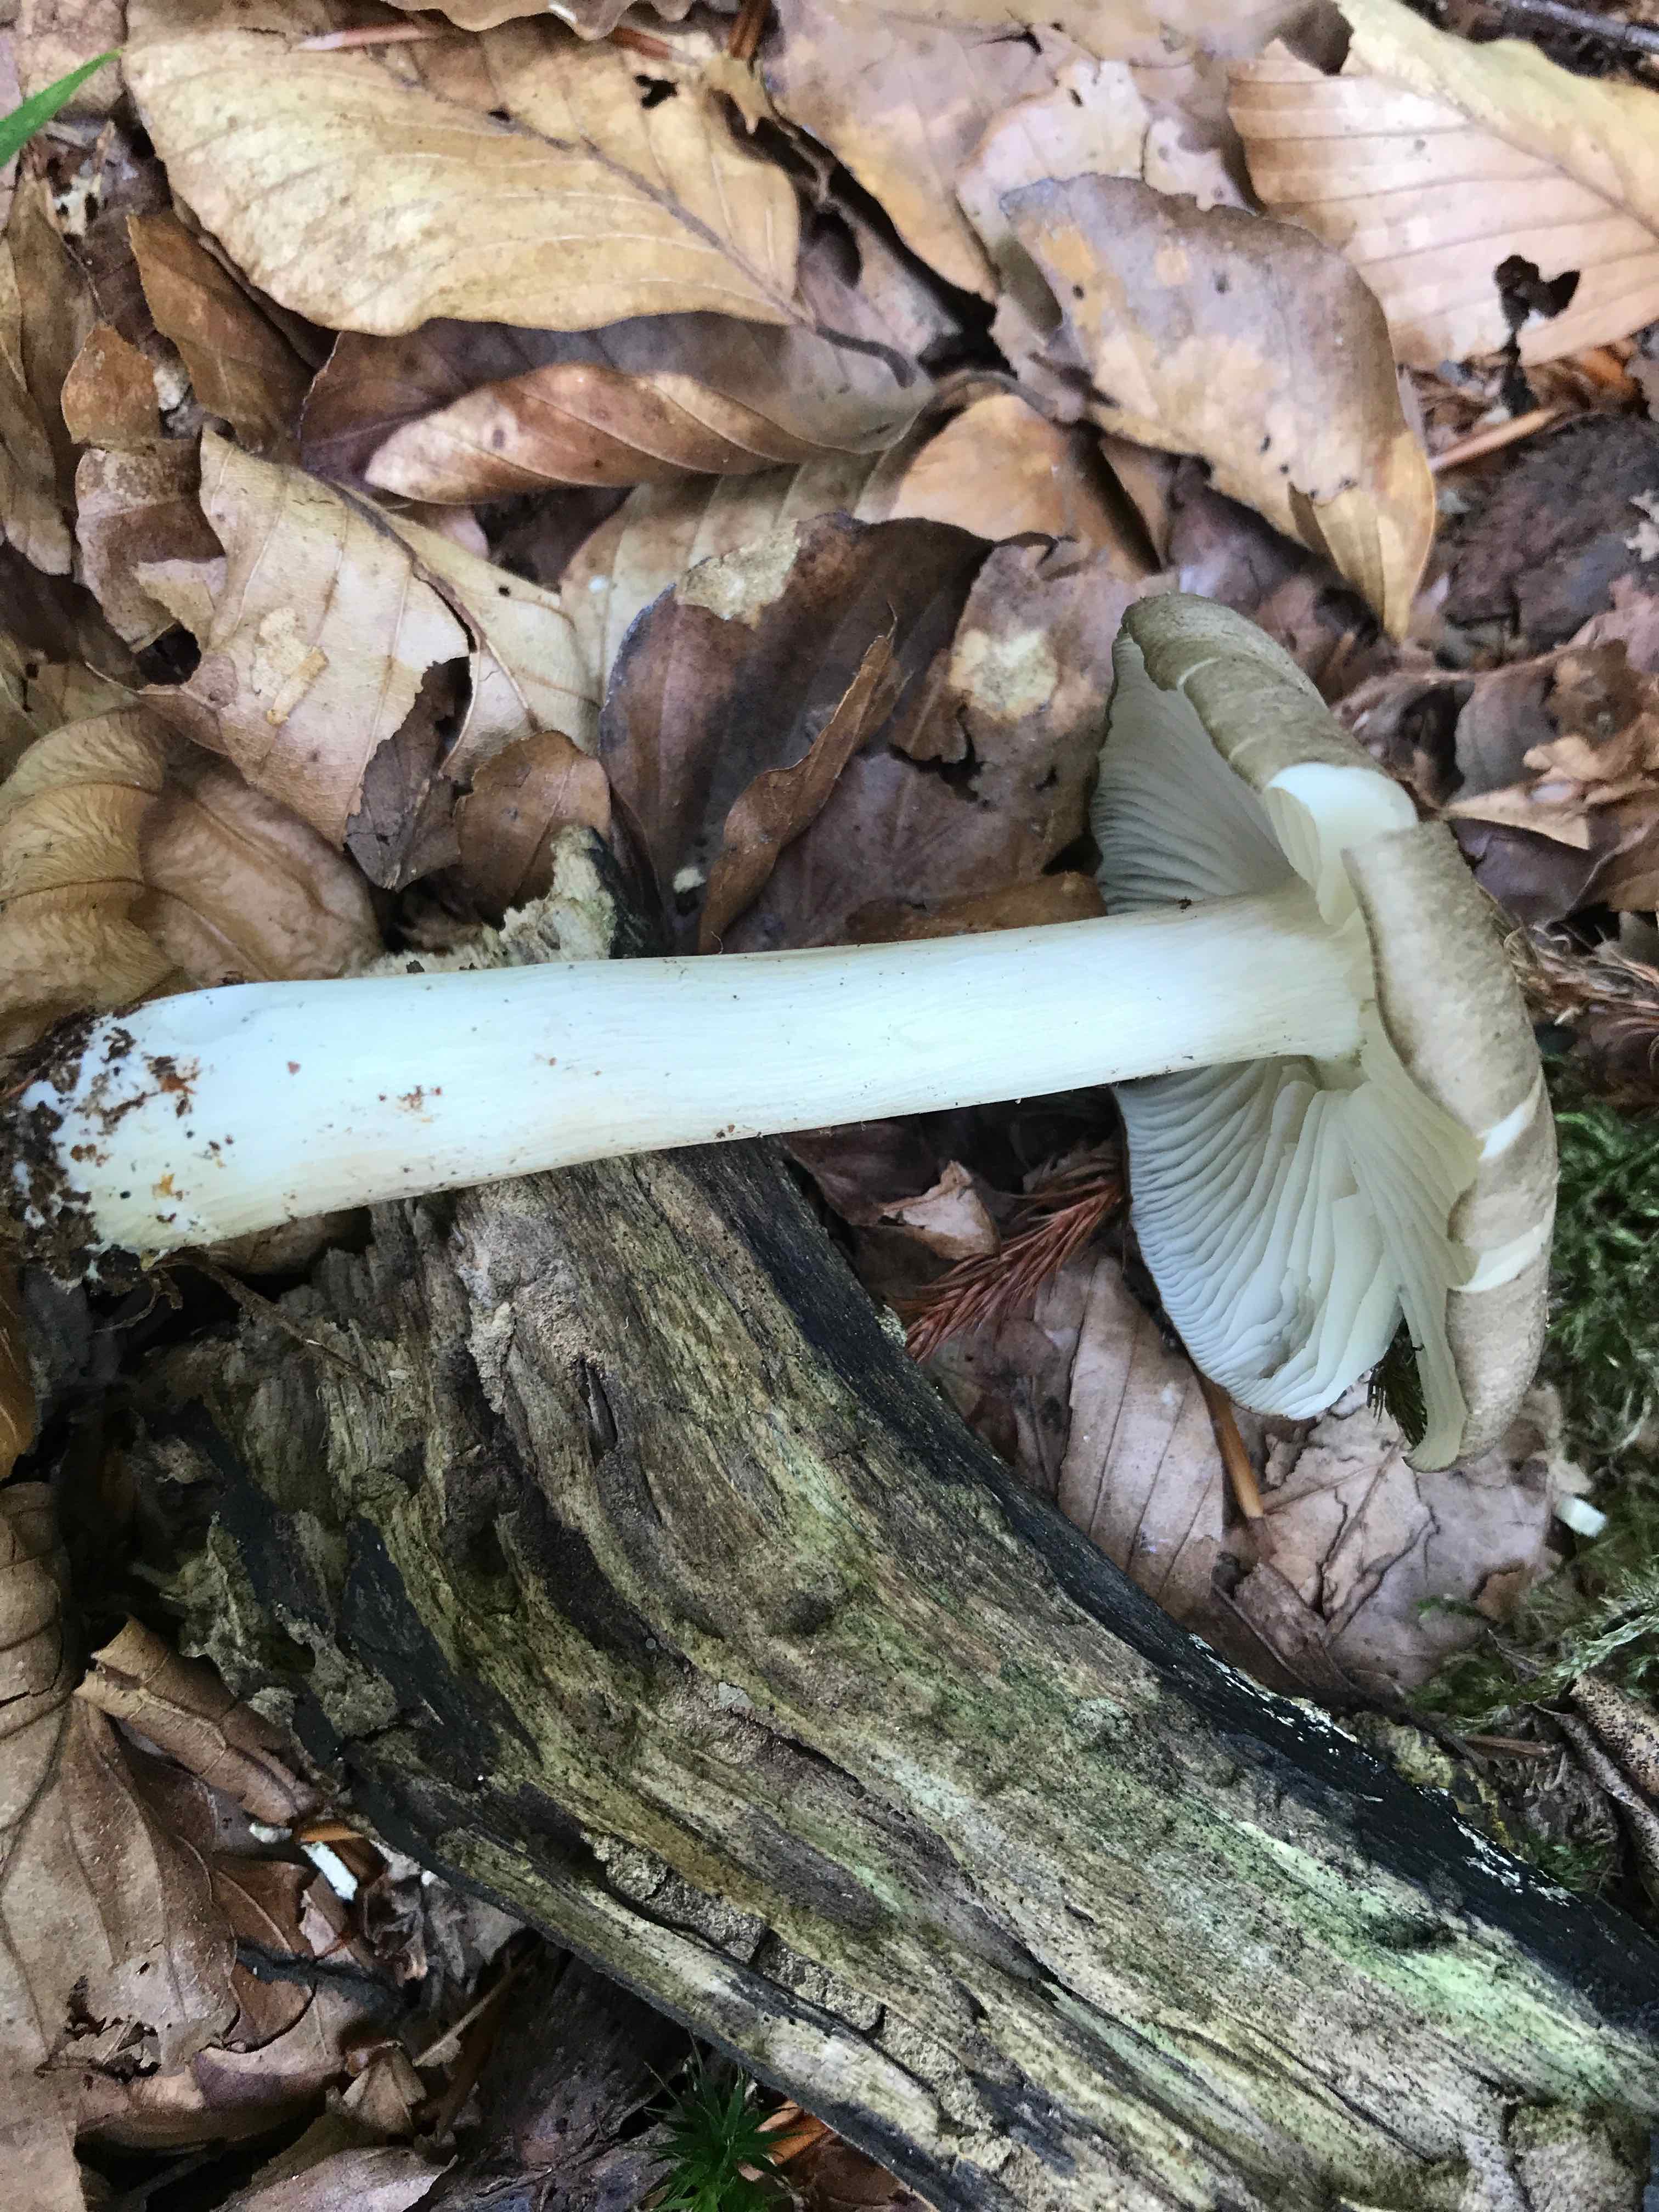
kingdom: Fungi
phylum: Basidiomycota
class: Agaricomycetes
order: Agaricales
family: Tricholomataceae
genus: Megacollybia
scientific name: Megacollybia platyphylla
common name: bredbladet væbnerhat
